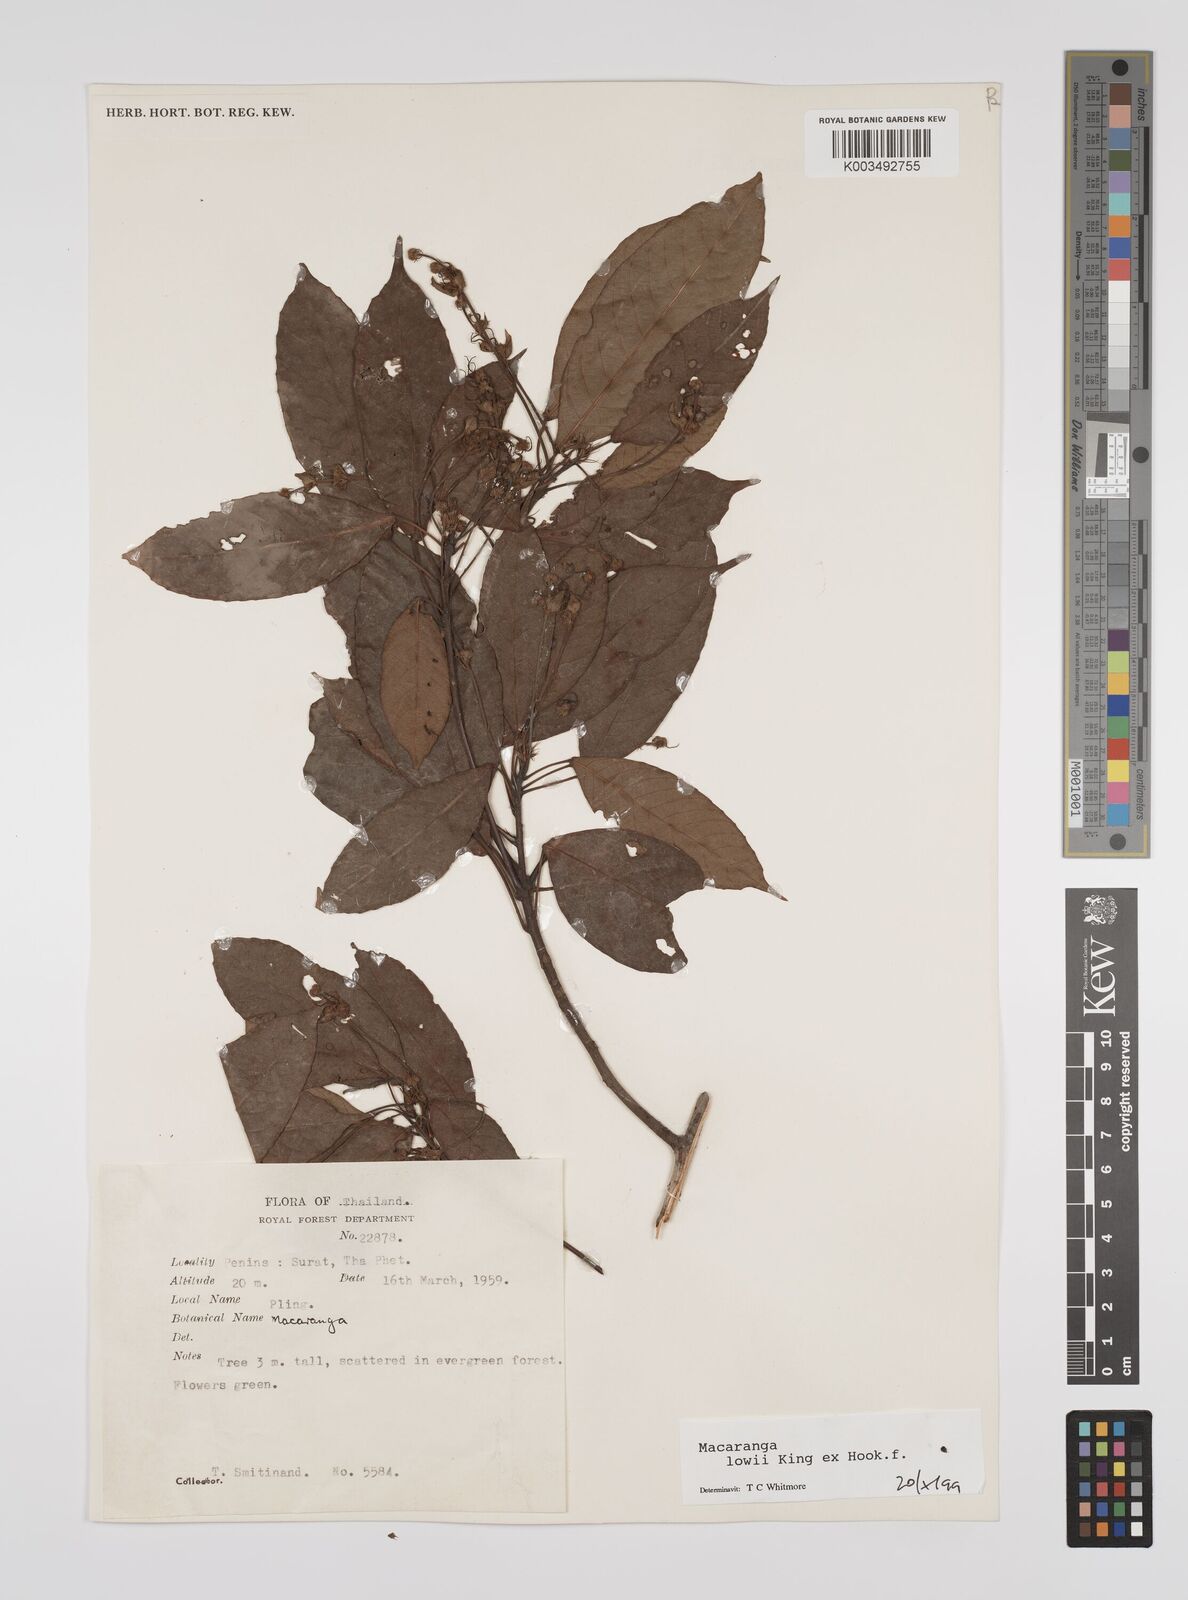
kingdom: Plantae
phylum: Tracheophyta
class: Magnoliopsida
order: Malpighiales
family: Euphorbiaceae
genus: Macaranga
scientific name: Macaranga lowii
